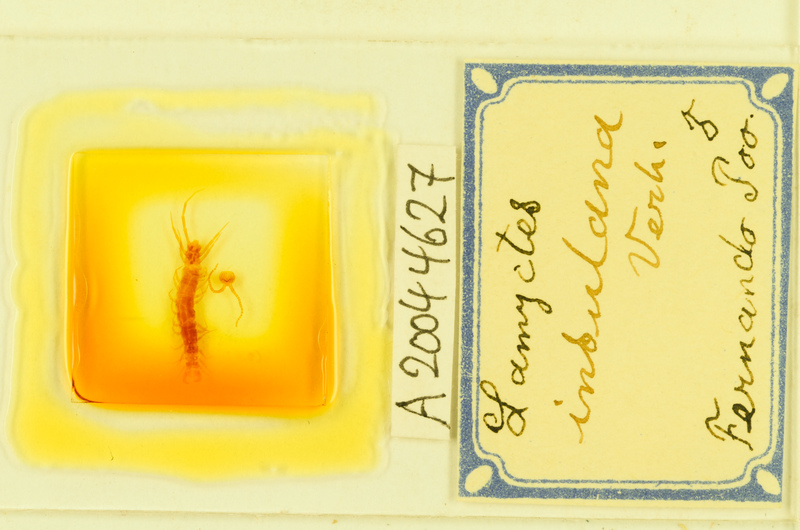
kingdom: Animalia
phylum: Arthropoda
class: Chilopoda
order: Lithobiomorpha
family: Henicopidae
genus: Lamyctes
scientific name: Lamyctes insulanus
